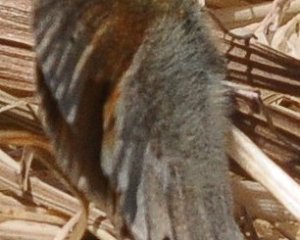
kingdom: Animalia
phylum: Arthropoda
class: Insecta
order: Lepidoptera
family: Nymphalidae
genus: Coenonympha
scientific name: Coenonympha california
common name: California Ringlet
